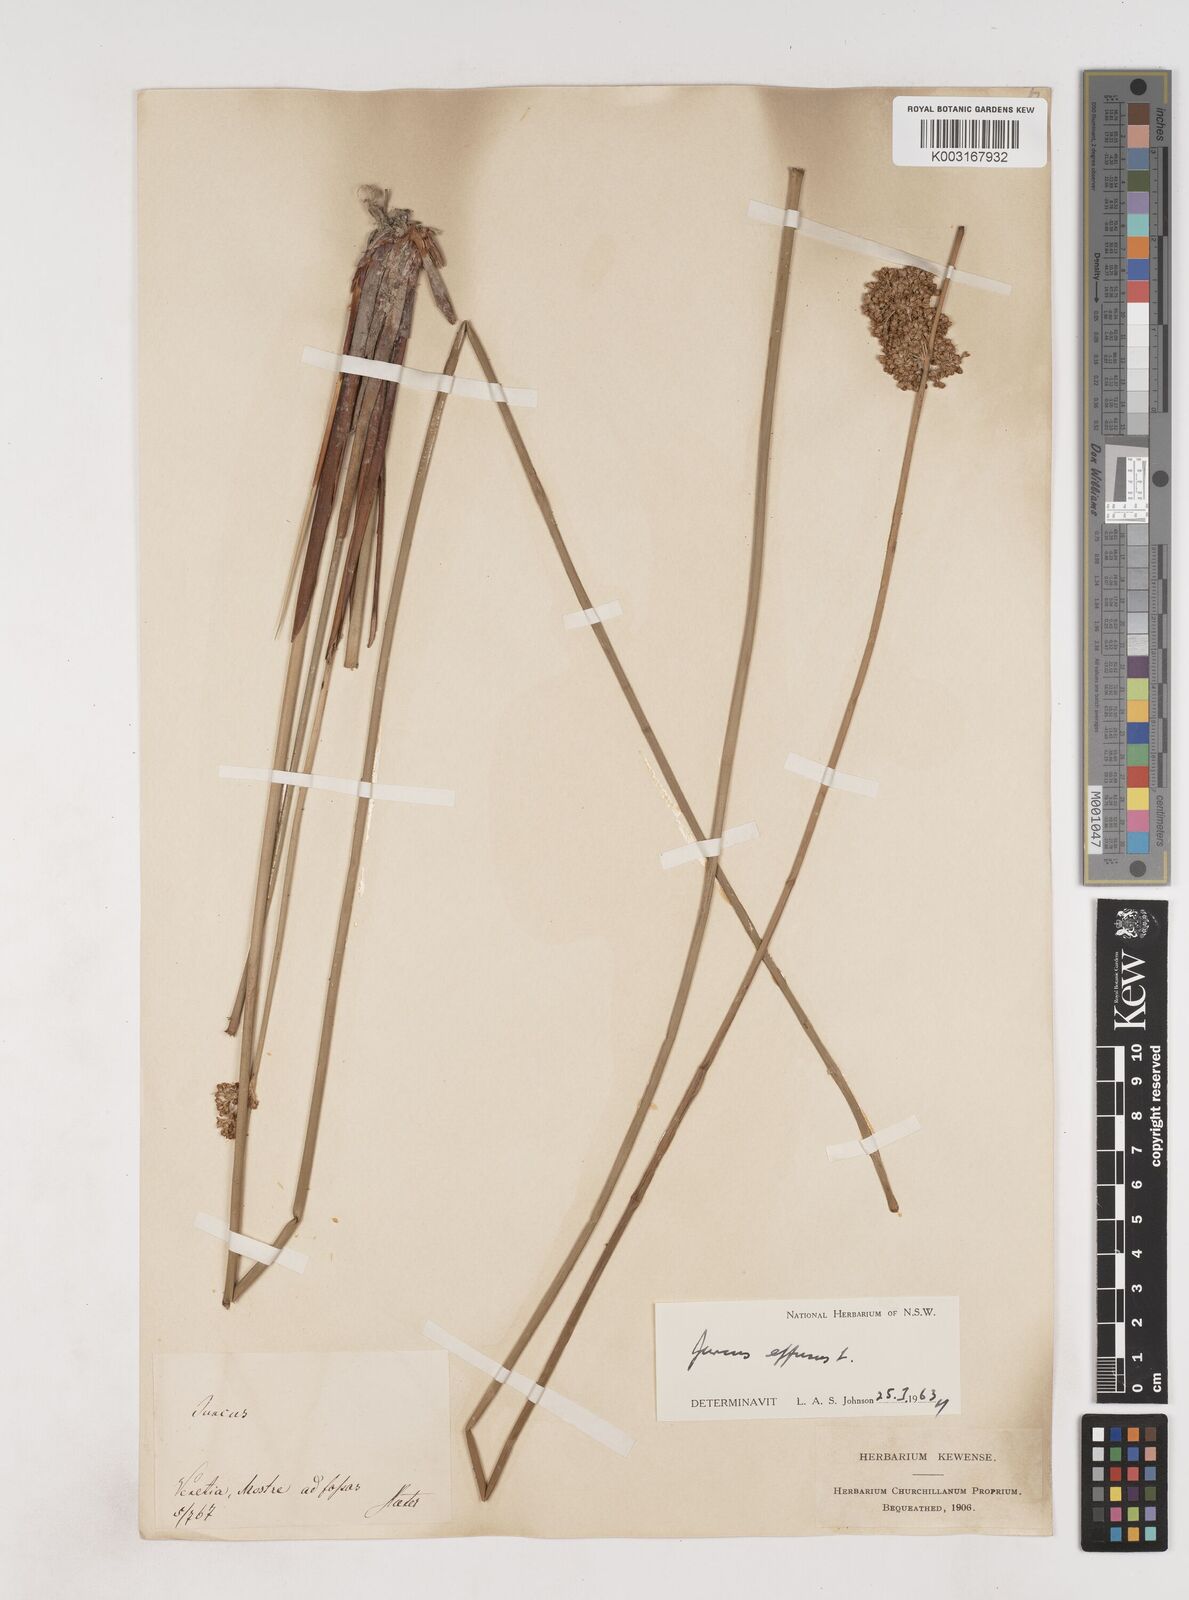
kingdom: Plantae
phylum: Tracheophyta
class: Liliopsida
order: Poales
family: Juncaceae
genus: Juncus
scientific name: Juncus effusus
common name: Soft rush
